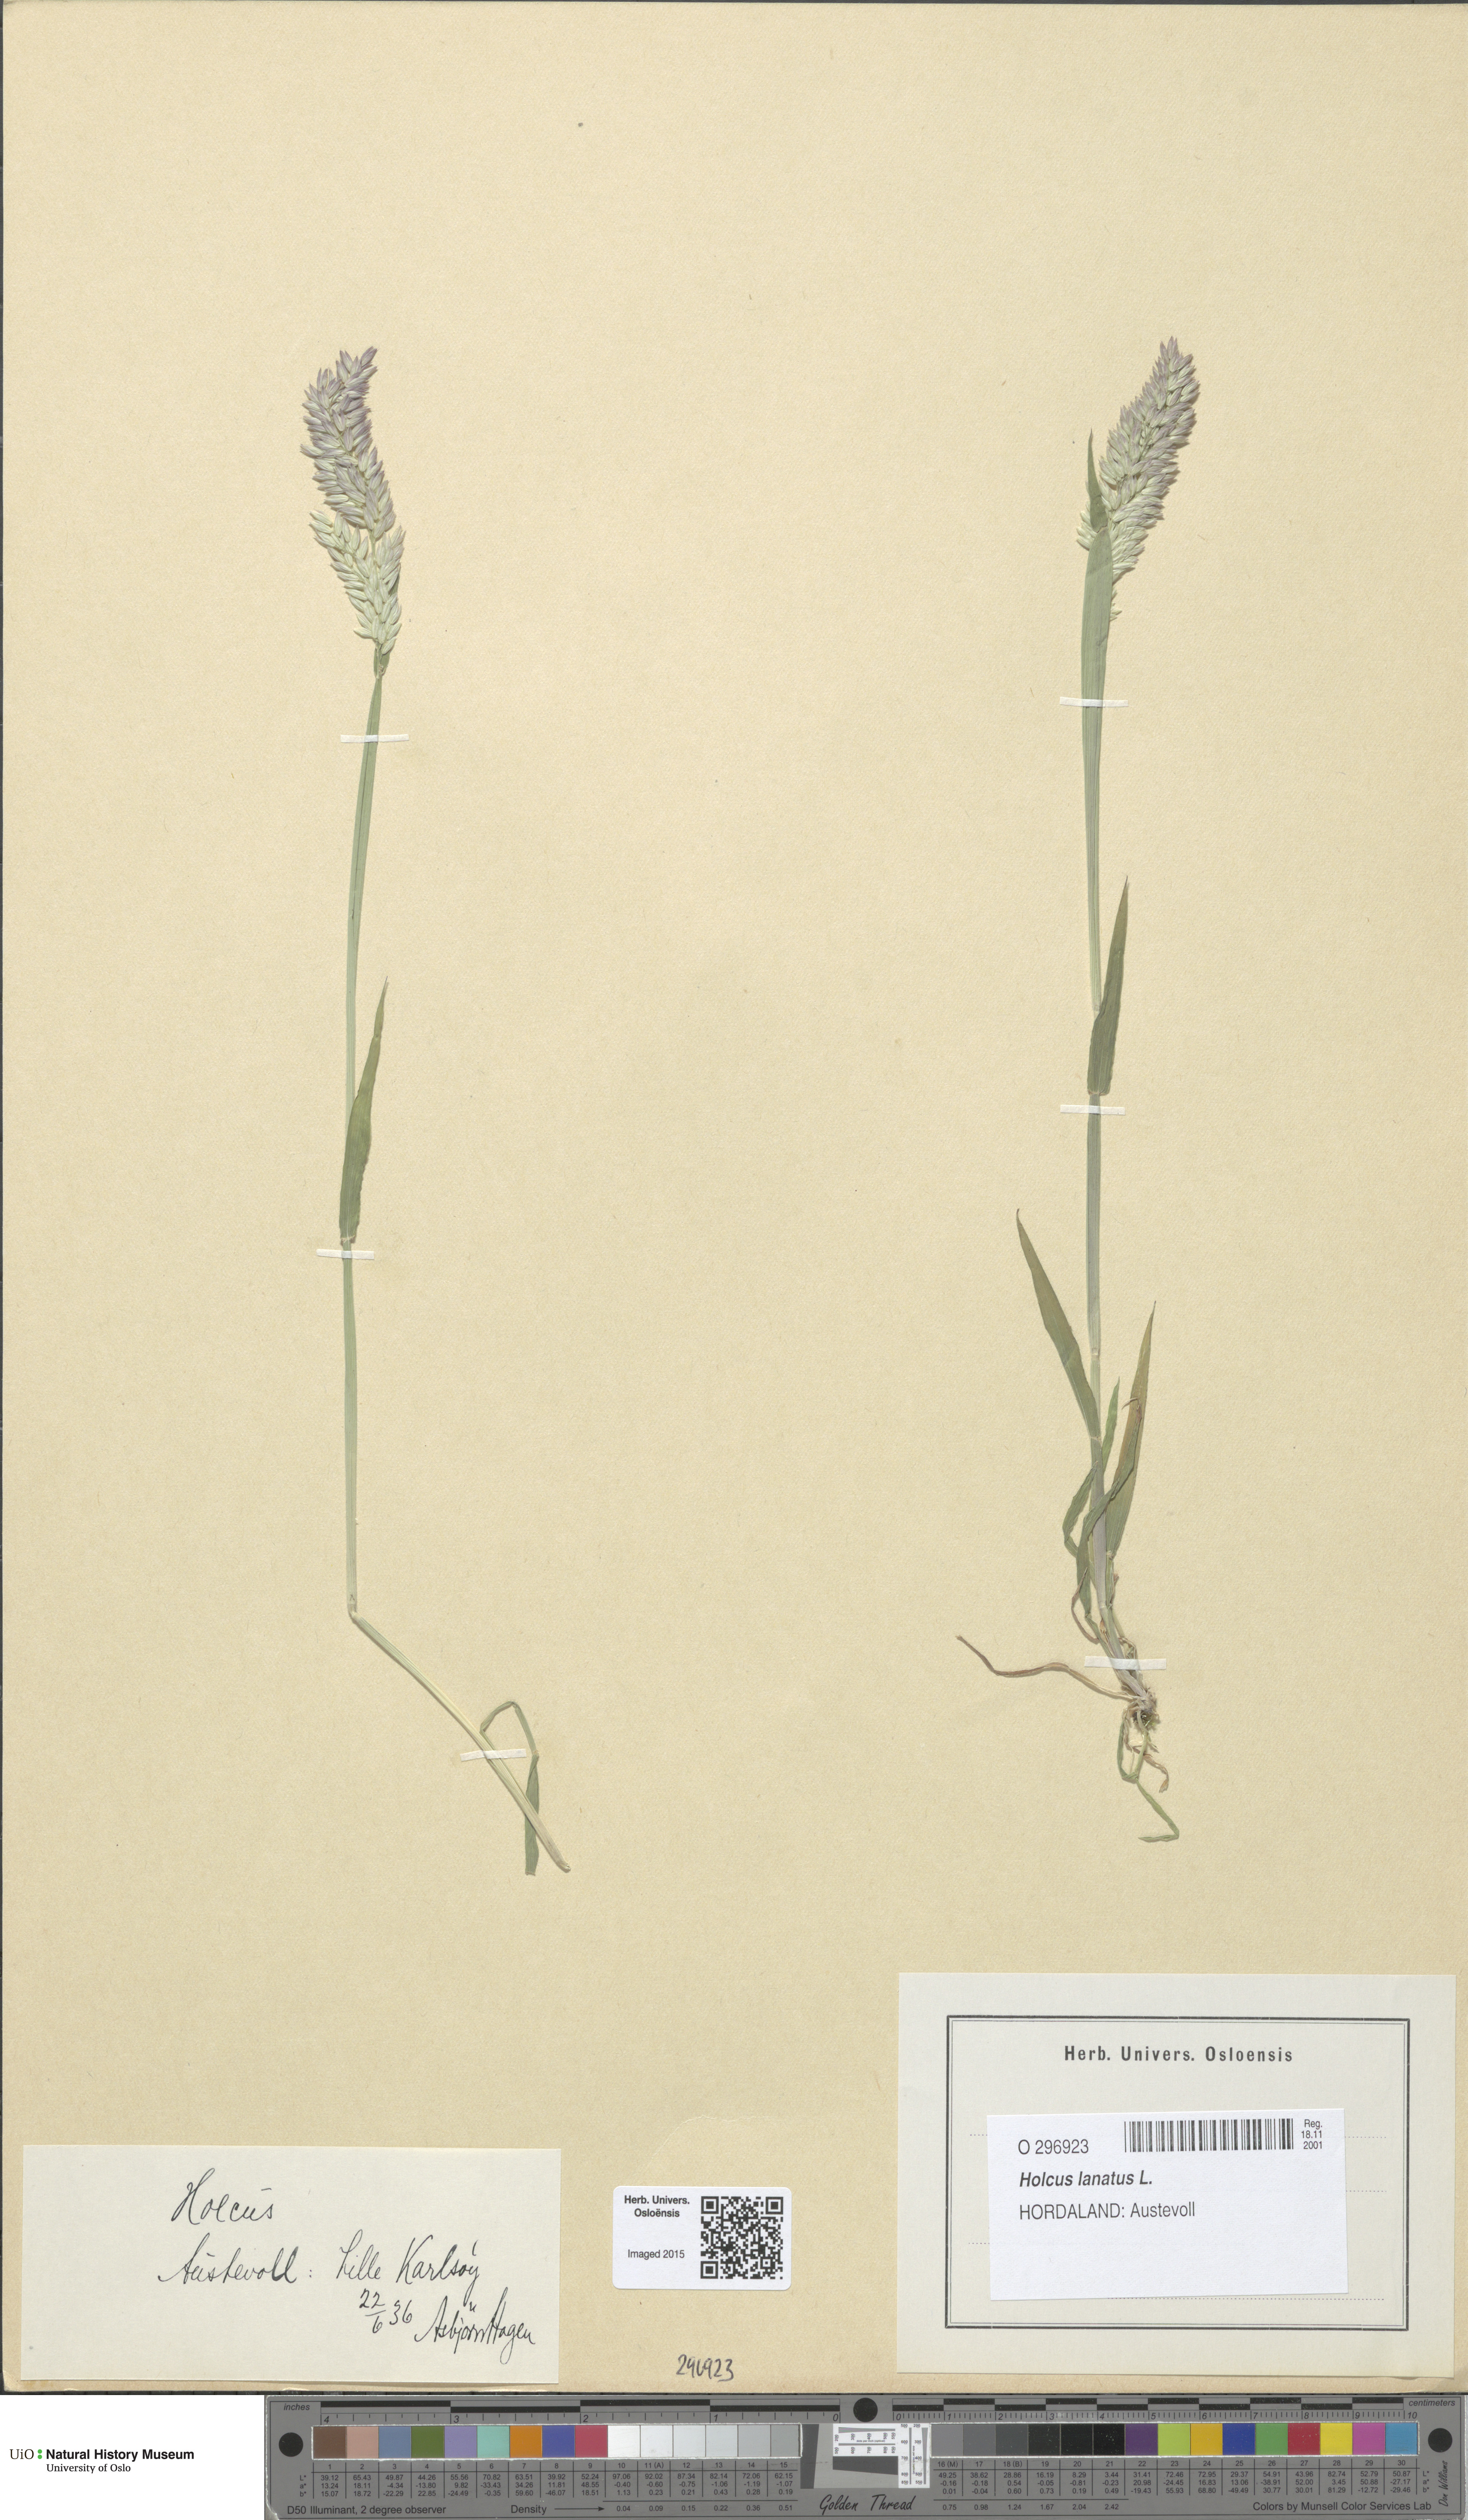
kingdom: Plantae
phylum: Tracheophyta
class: Liliopsida
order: Poales
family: Poaceae
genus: Holcus
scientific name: Holcus lanatus
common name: Yorkshire-fog
